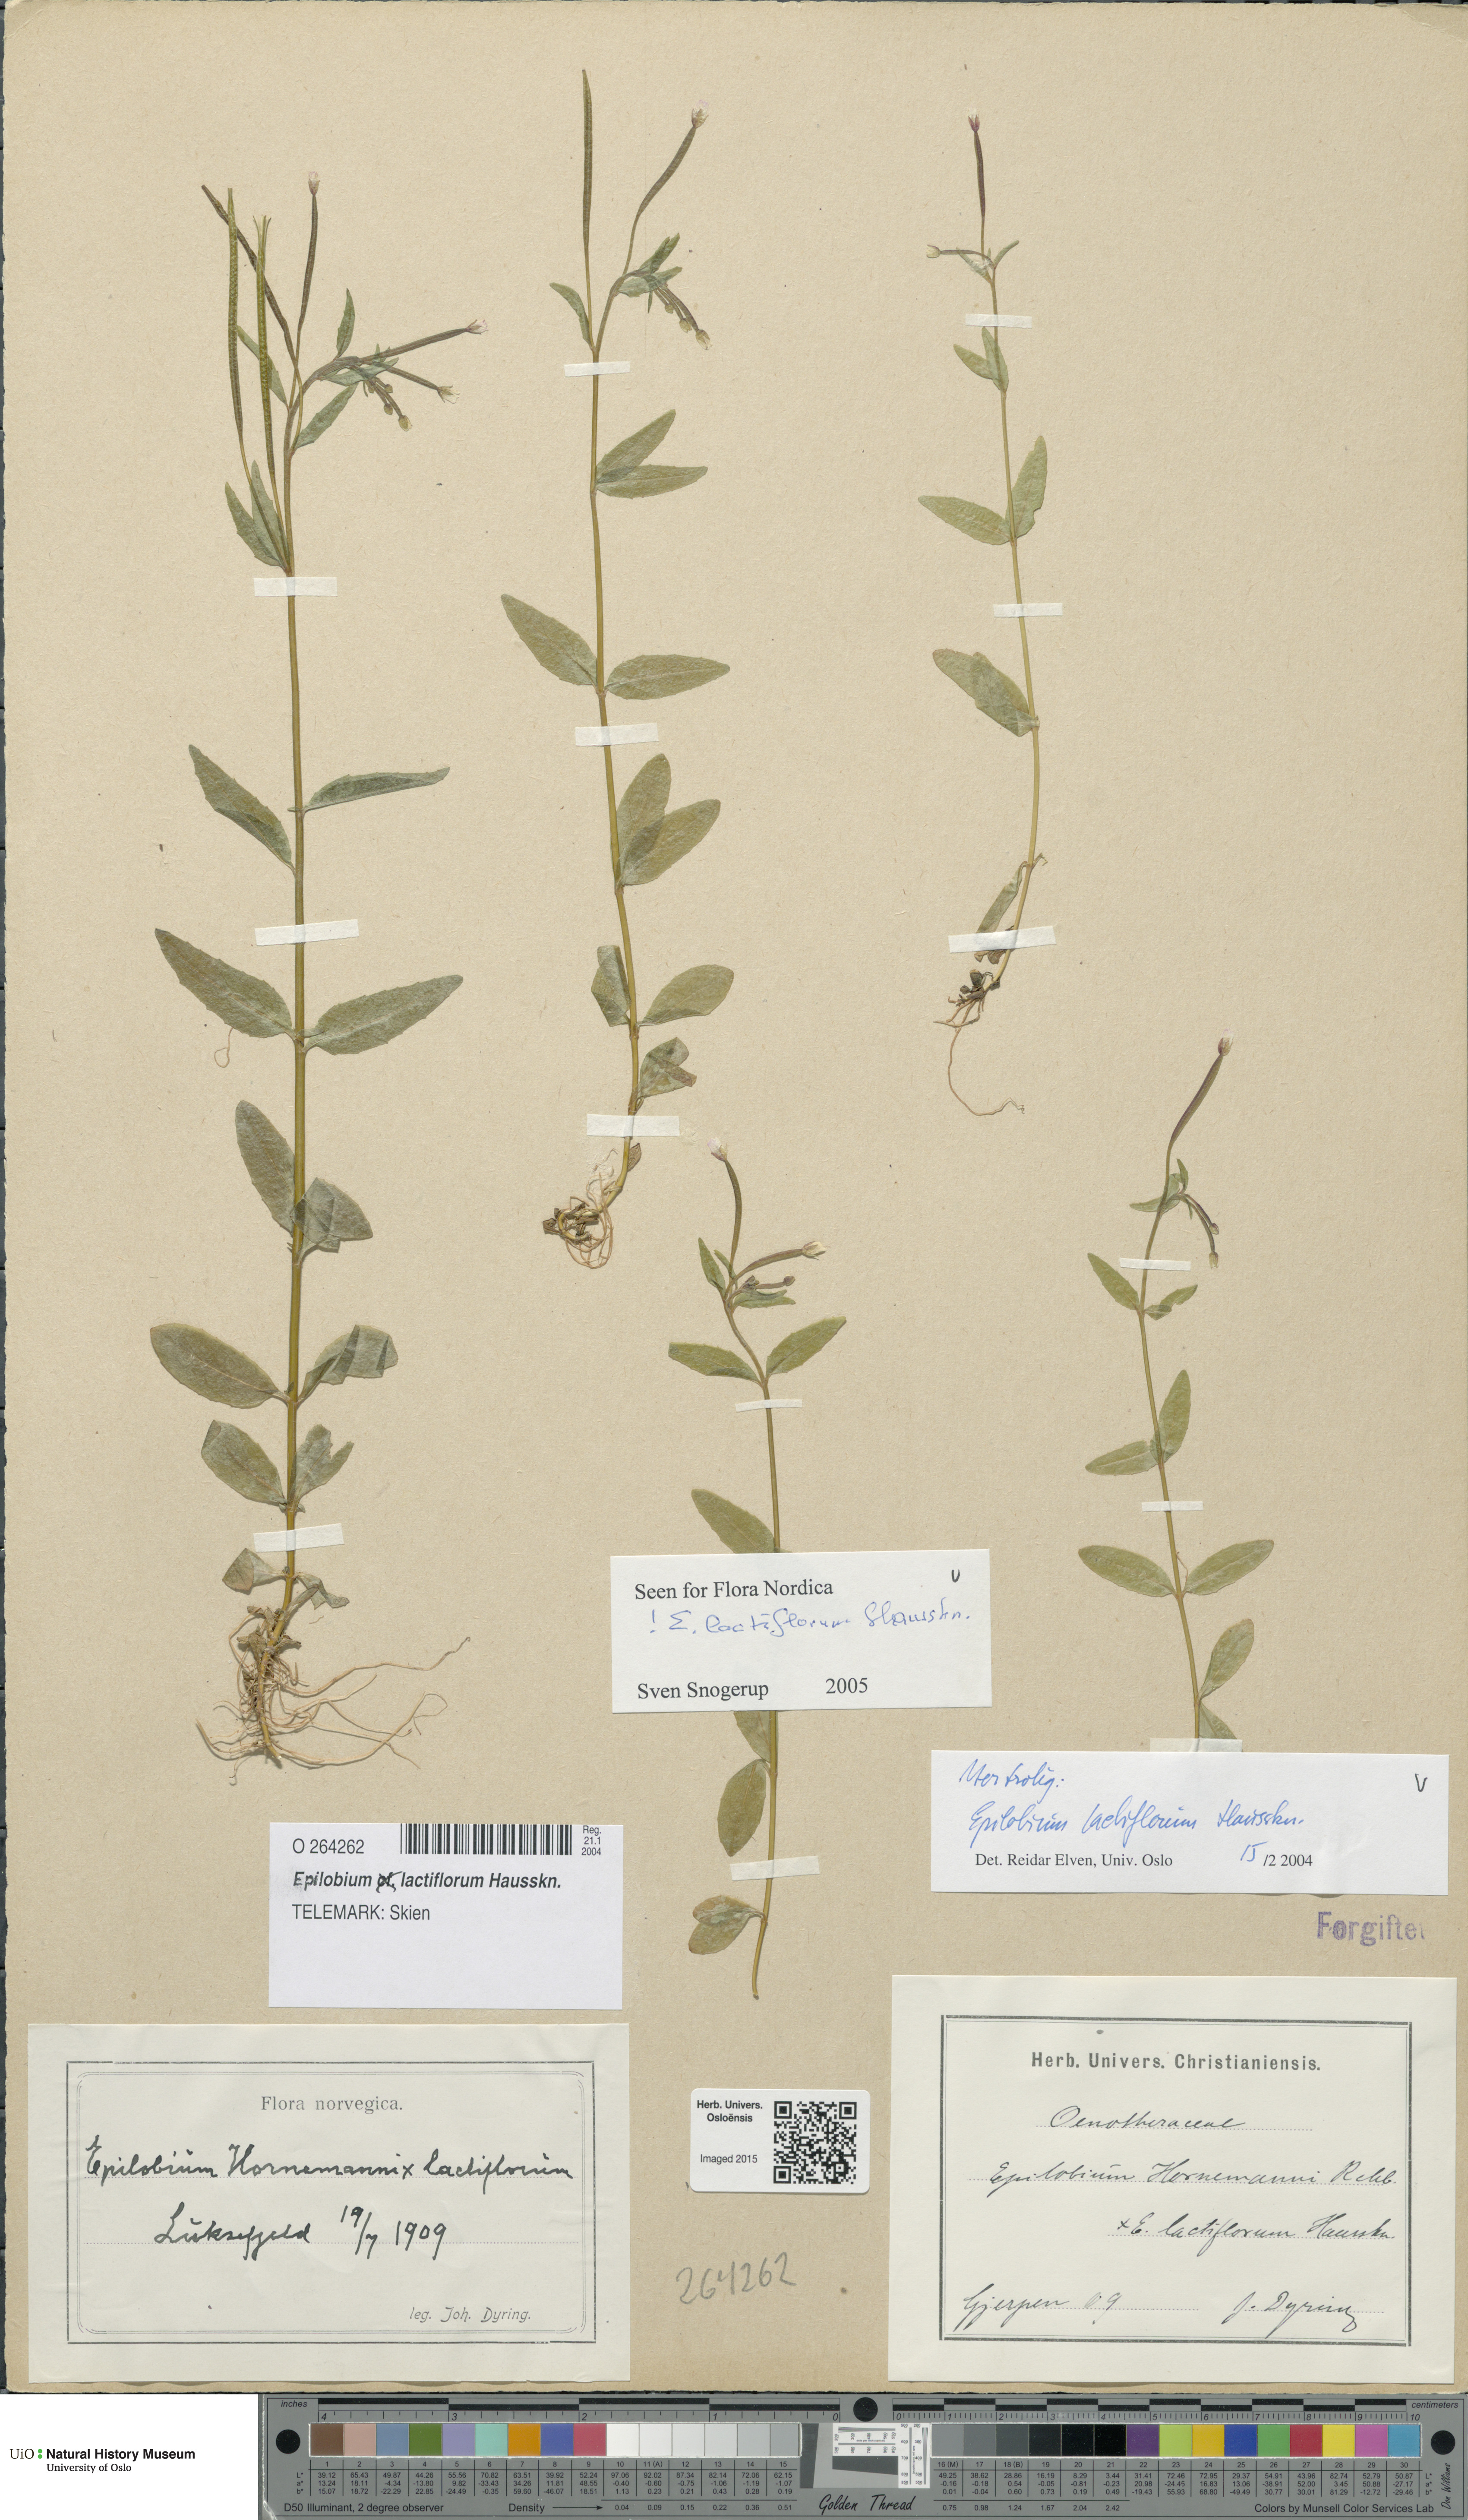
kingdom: Plantae
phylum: Tracheophyta
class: Magnoliopsida
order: Myrtales
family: Onagraceae
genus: Epilobium
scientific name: Epilobium lactiflorum
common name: Milkflower willowherb
